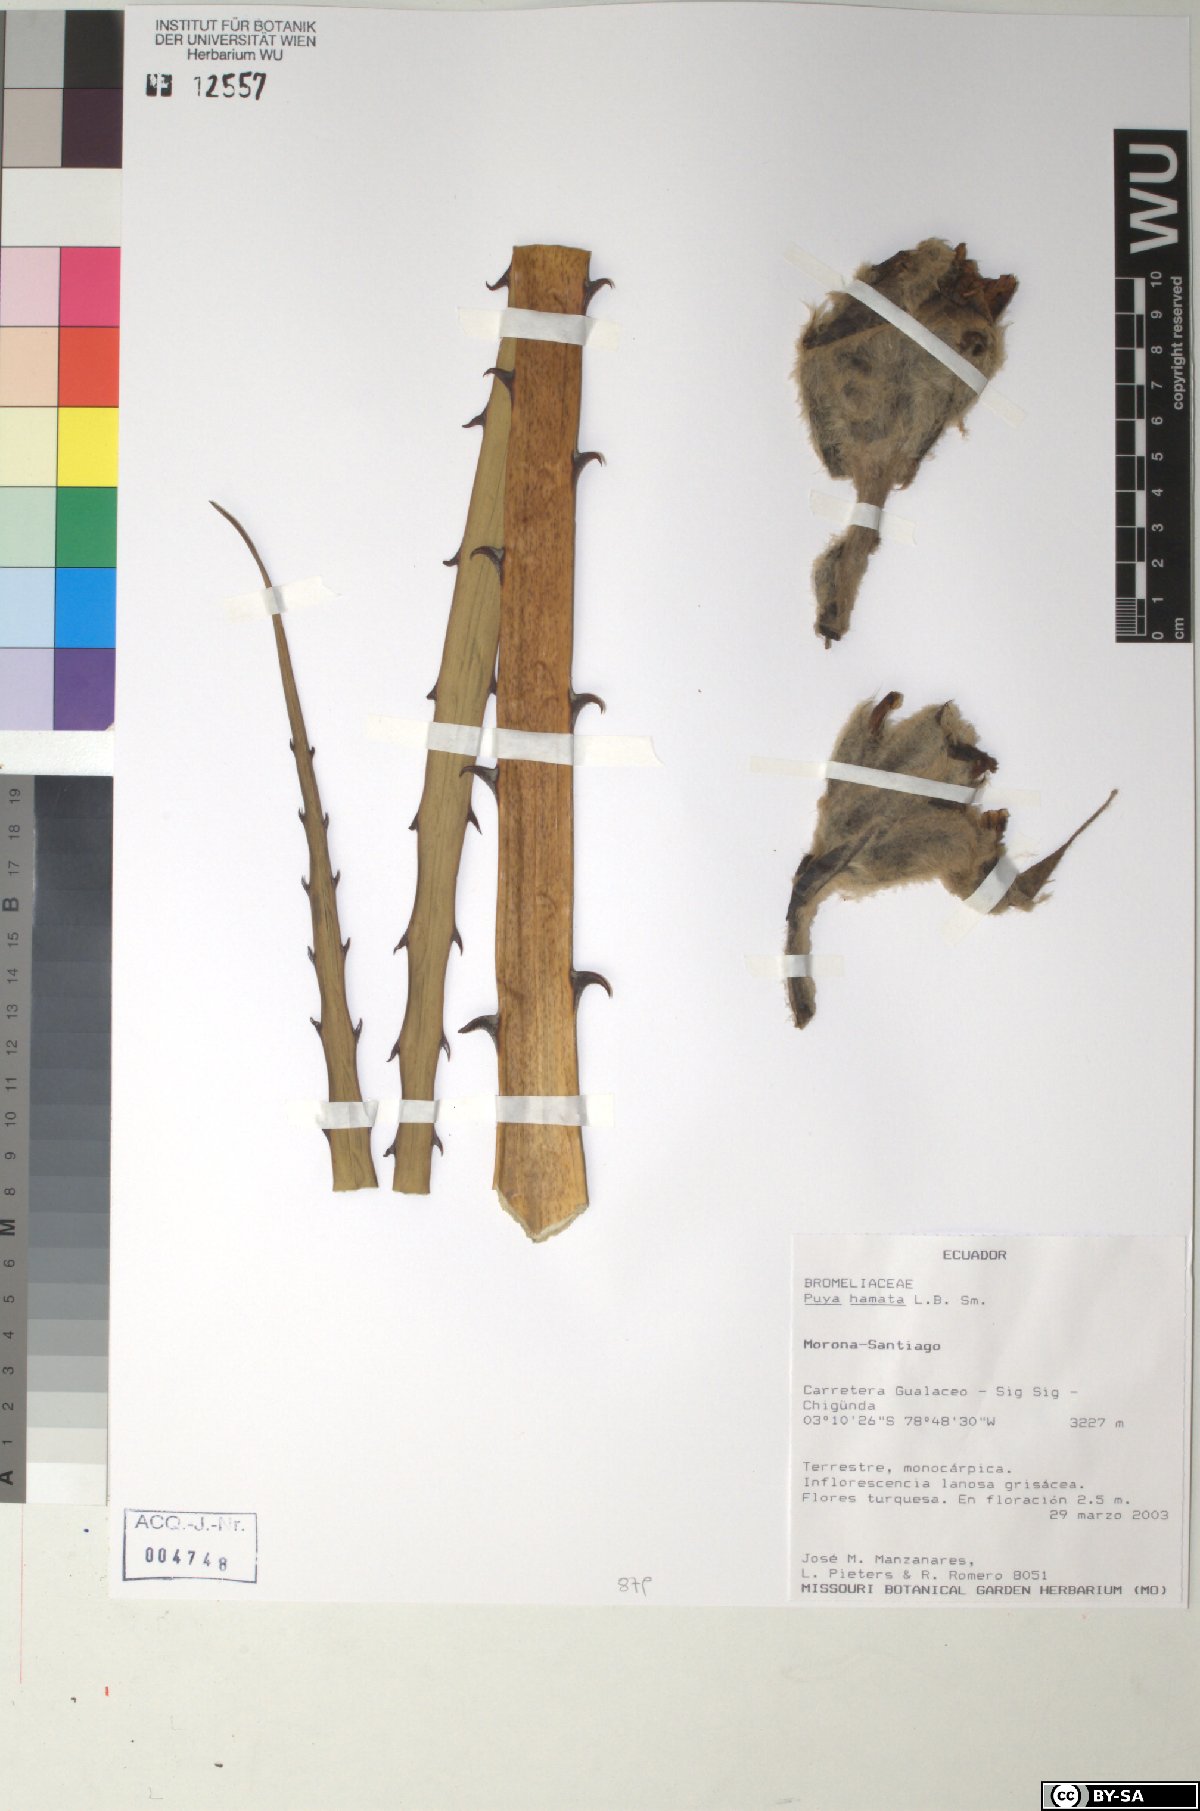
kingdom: Plantae
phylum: Tracheophyta
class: Liliopsida
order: Poales
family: Bromeliaceae
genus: Puya
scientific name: Puya hamata
